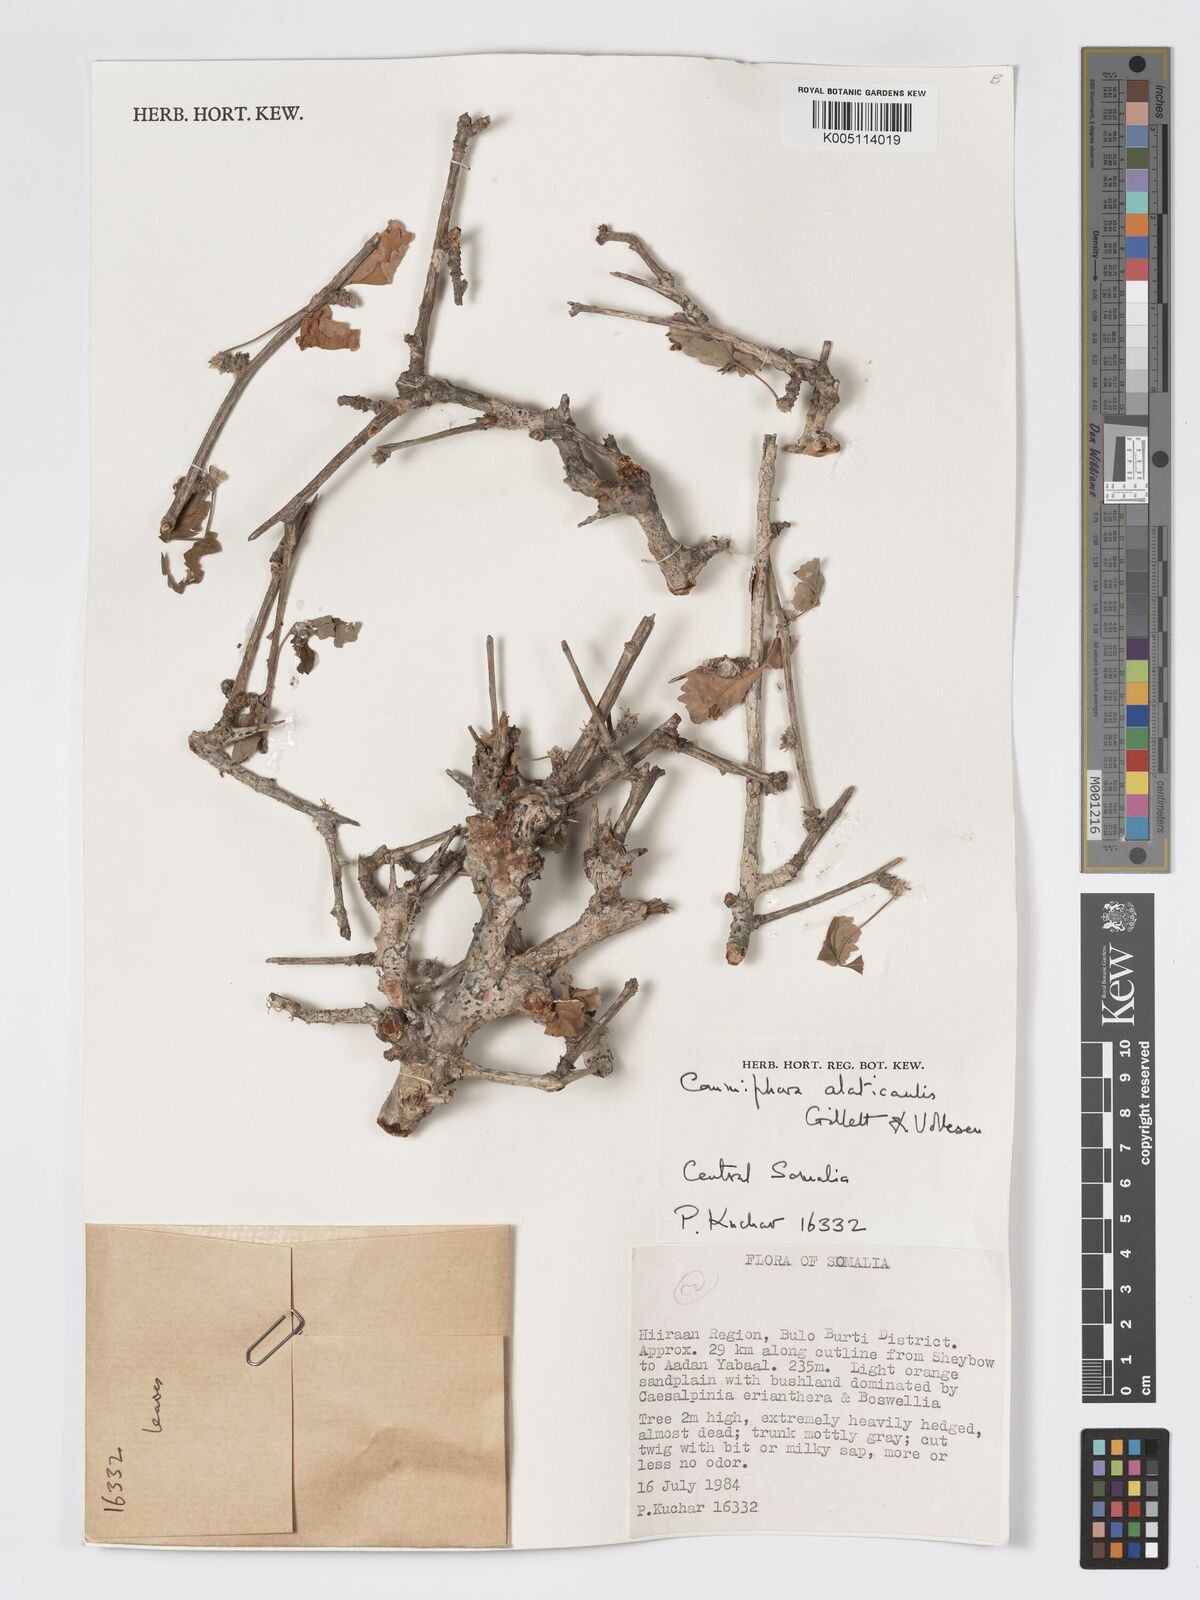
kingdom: Plantae
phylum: Tracheophyta
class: Magnoliopsida
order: Sapindales
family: Burseraceae
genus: Commiphora
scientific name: Commiphora
